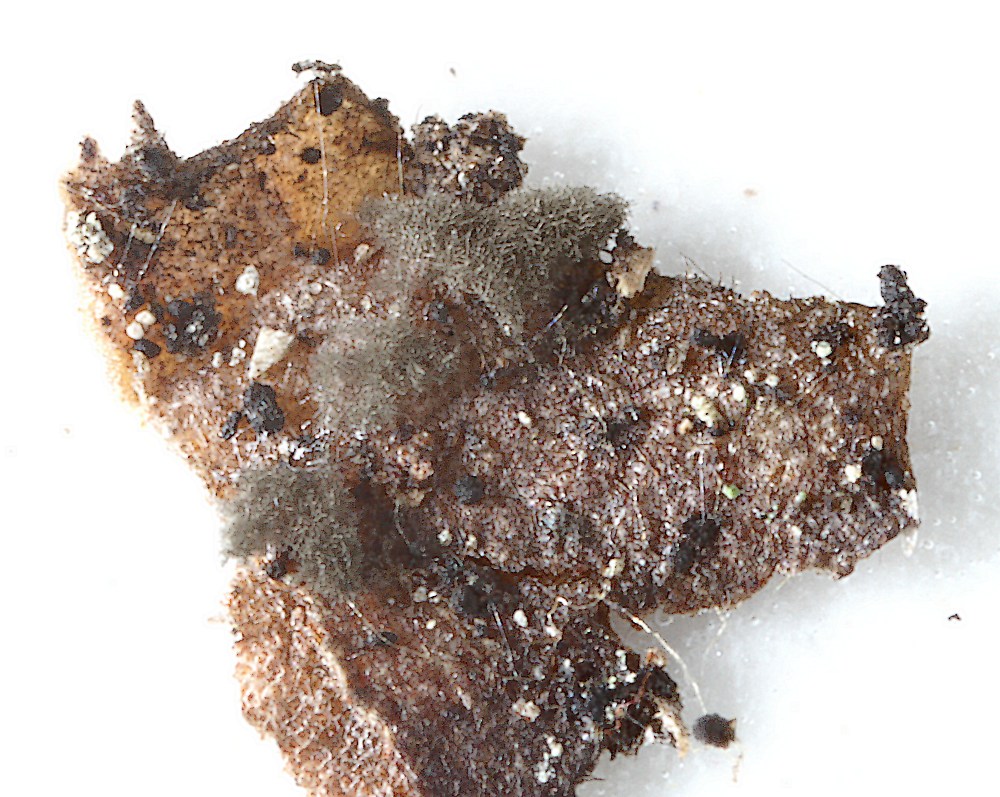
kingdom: Fungi
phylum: Ascomycota
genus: Hormiactella
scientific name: Hormiactella asetosa
